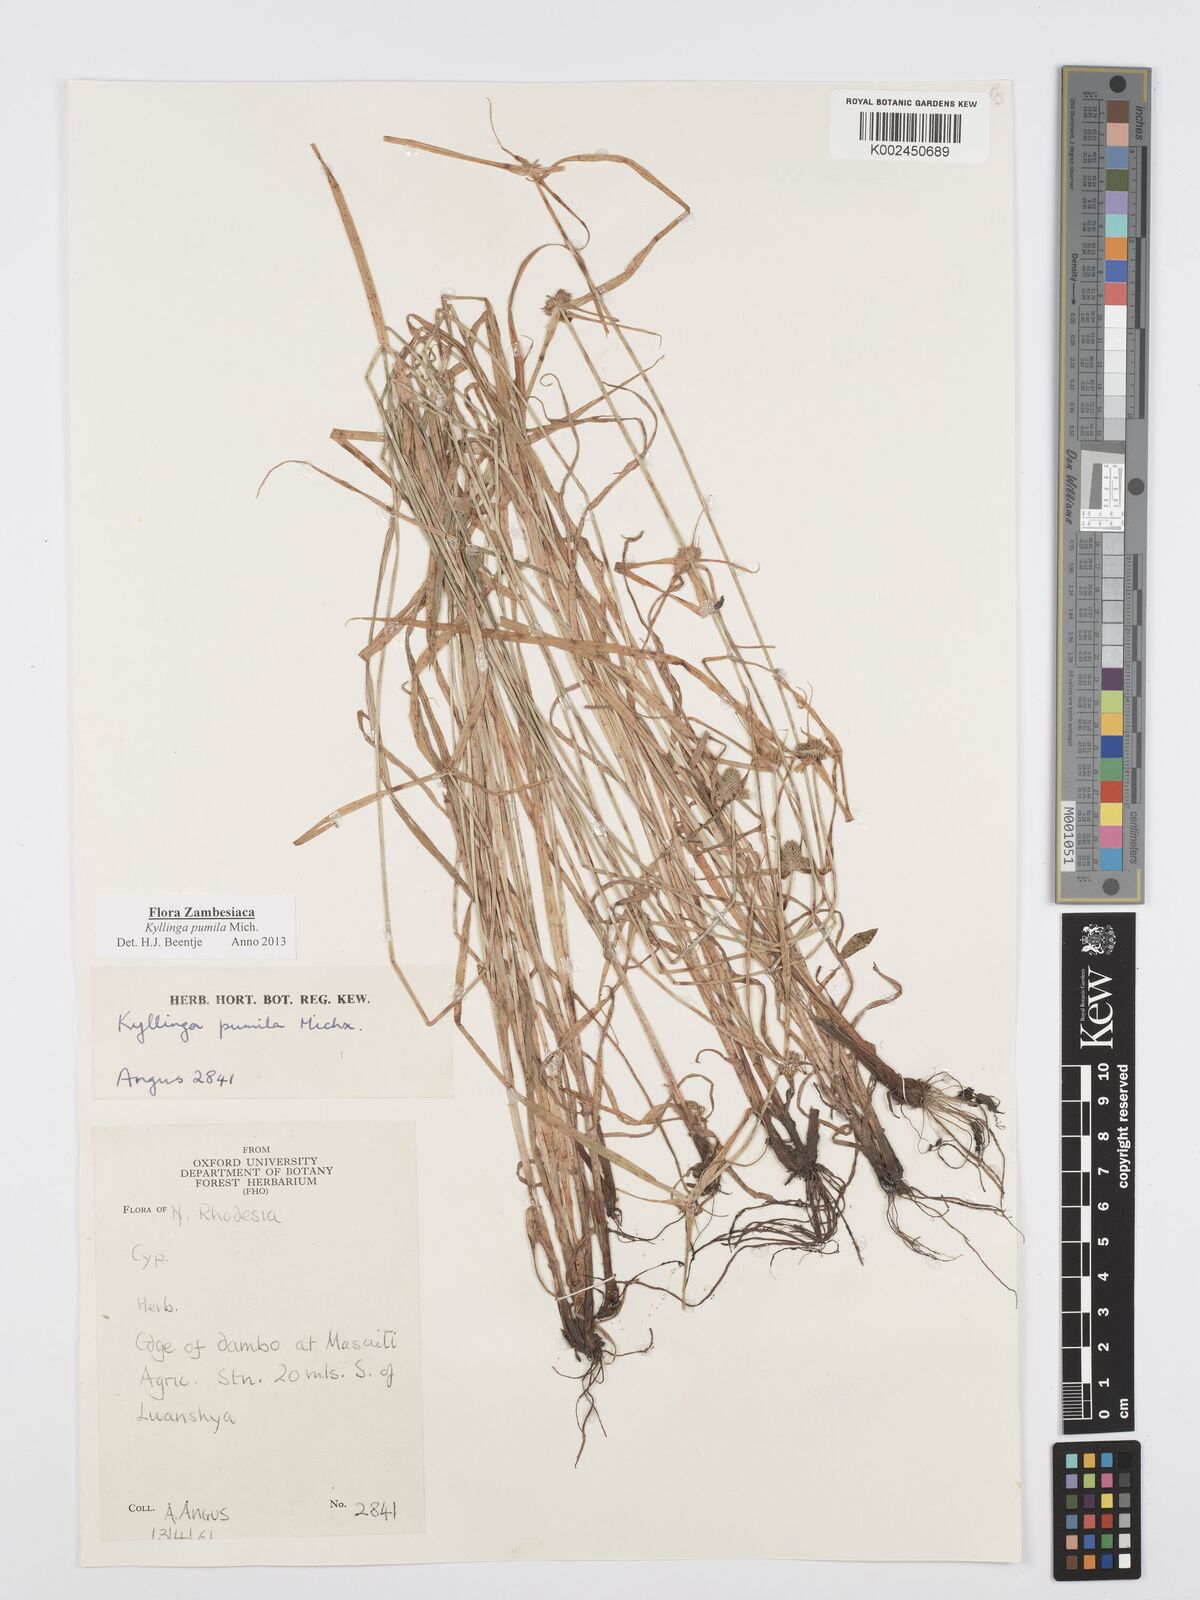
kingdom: Plantae
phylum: Tracheophyta
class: Liliopsida
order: Poales
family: Cyperaceae
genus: Cyperus
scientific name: Cyperus pumilus
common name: Low flatsedge
